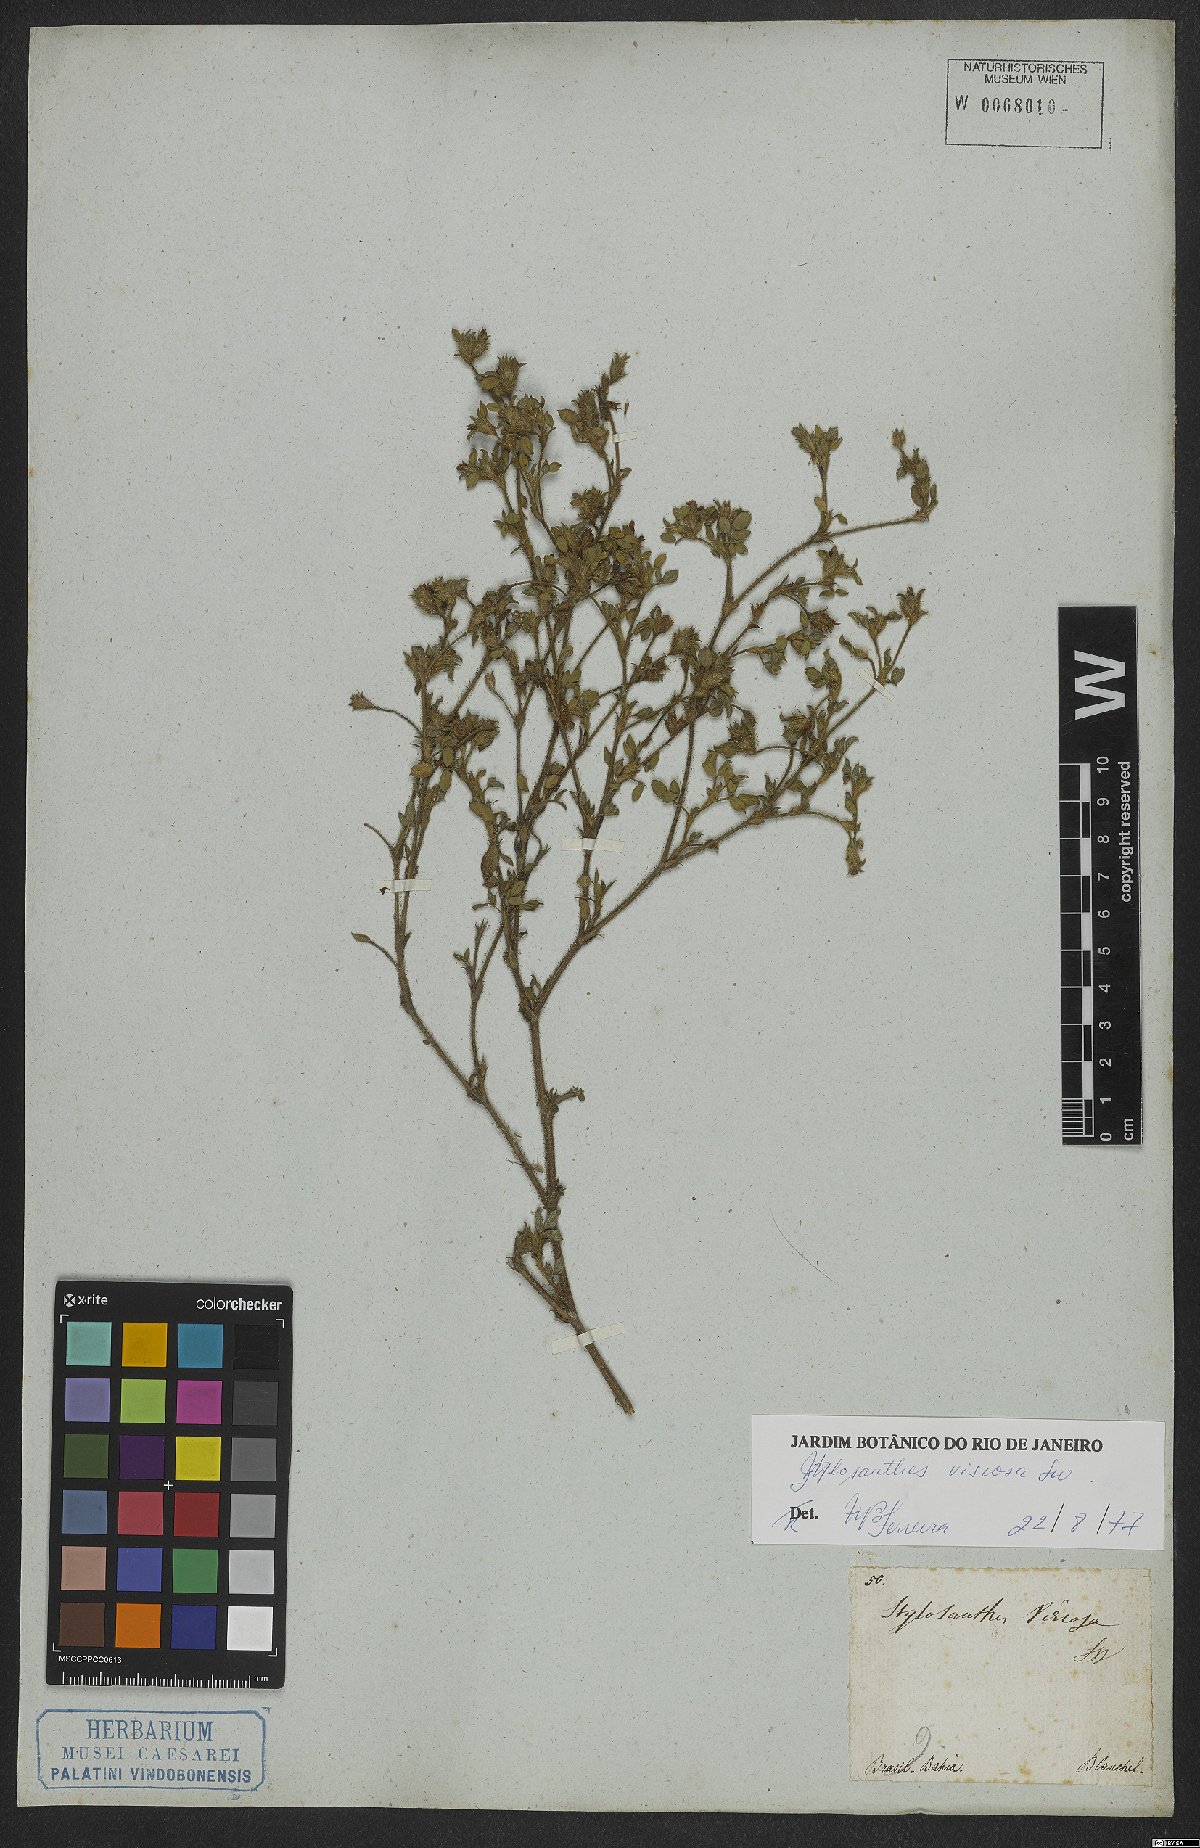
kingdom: Plantae
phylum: Tracheophyta
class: Magnoliopsida
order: Fabales
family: Fabaceae
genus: Stylosanthes
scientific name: Stylosanthes viscosa
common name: Viscid pencil-flower
